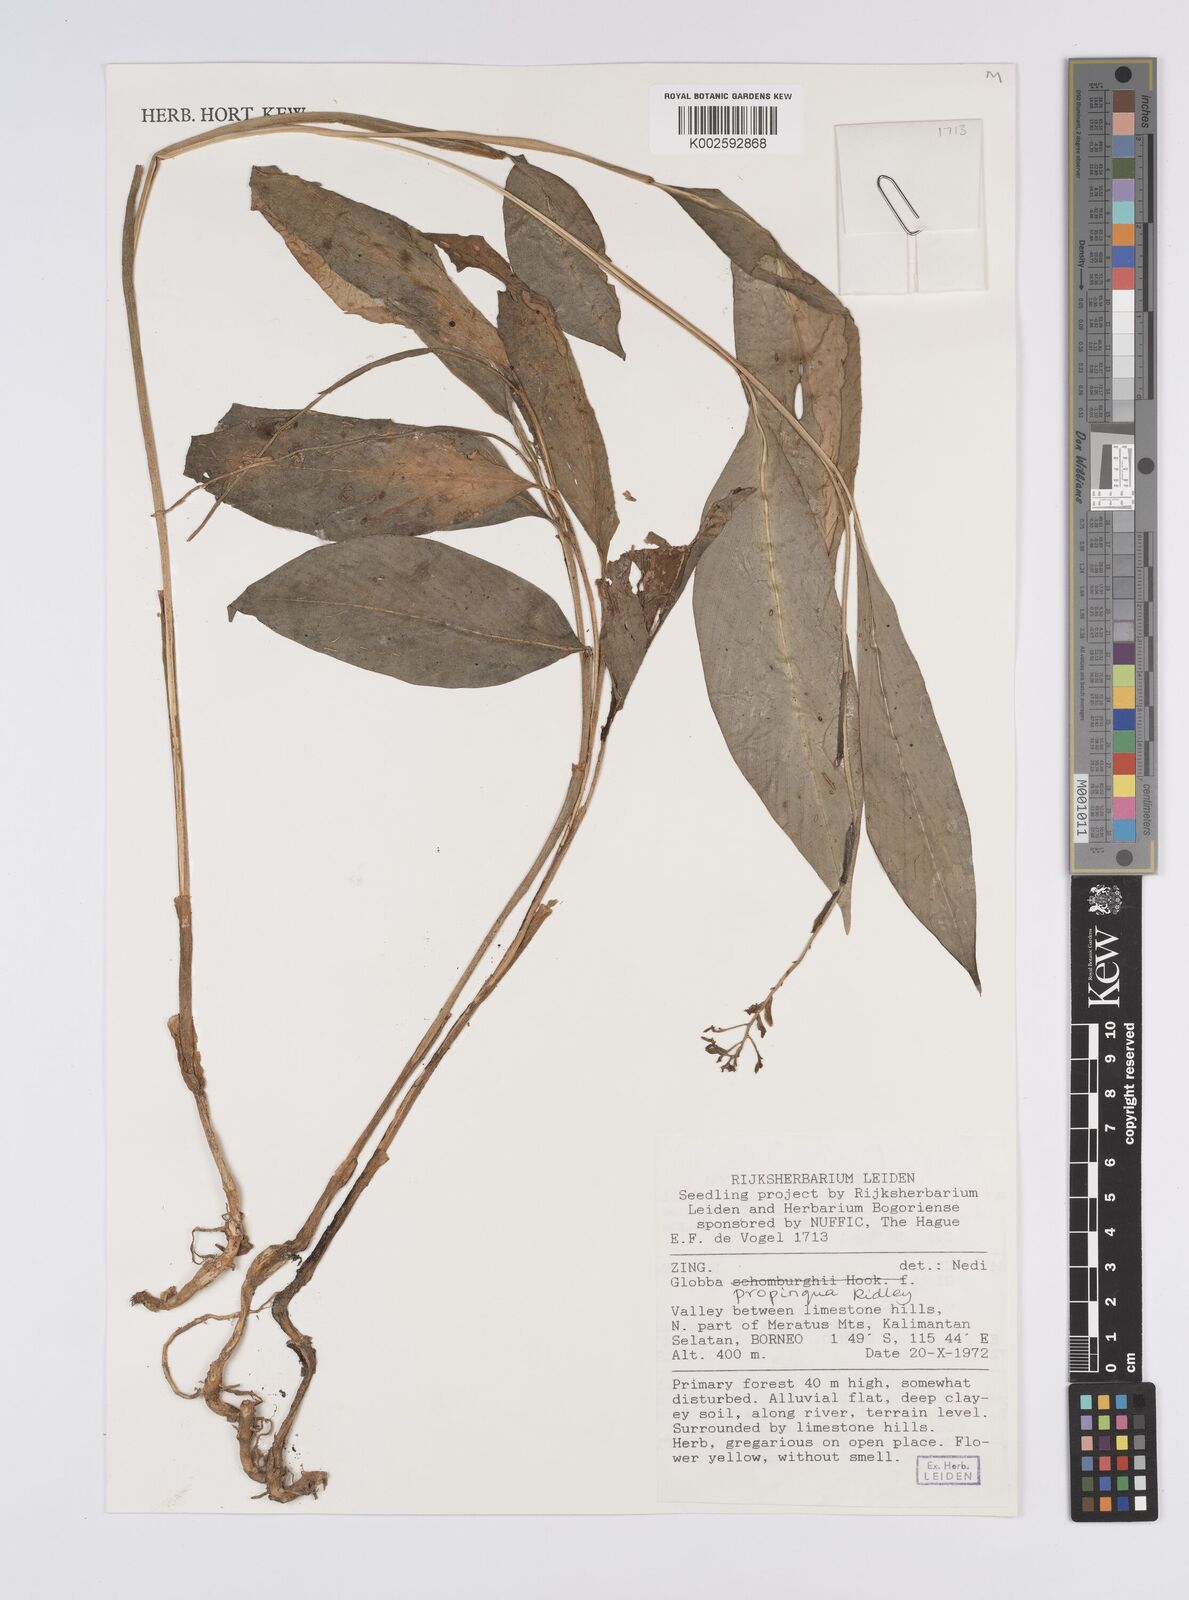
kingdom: Plantae
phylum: Tracheophyta
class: Liliopsida
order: Zingiberales
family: Zingiberaceae
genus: Globba
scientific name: Globba propinqua
